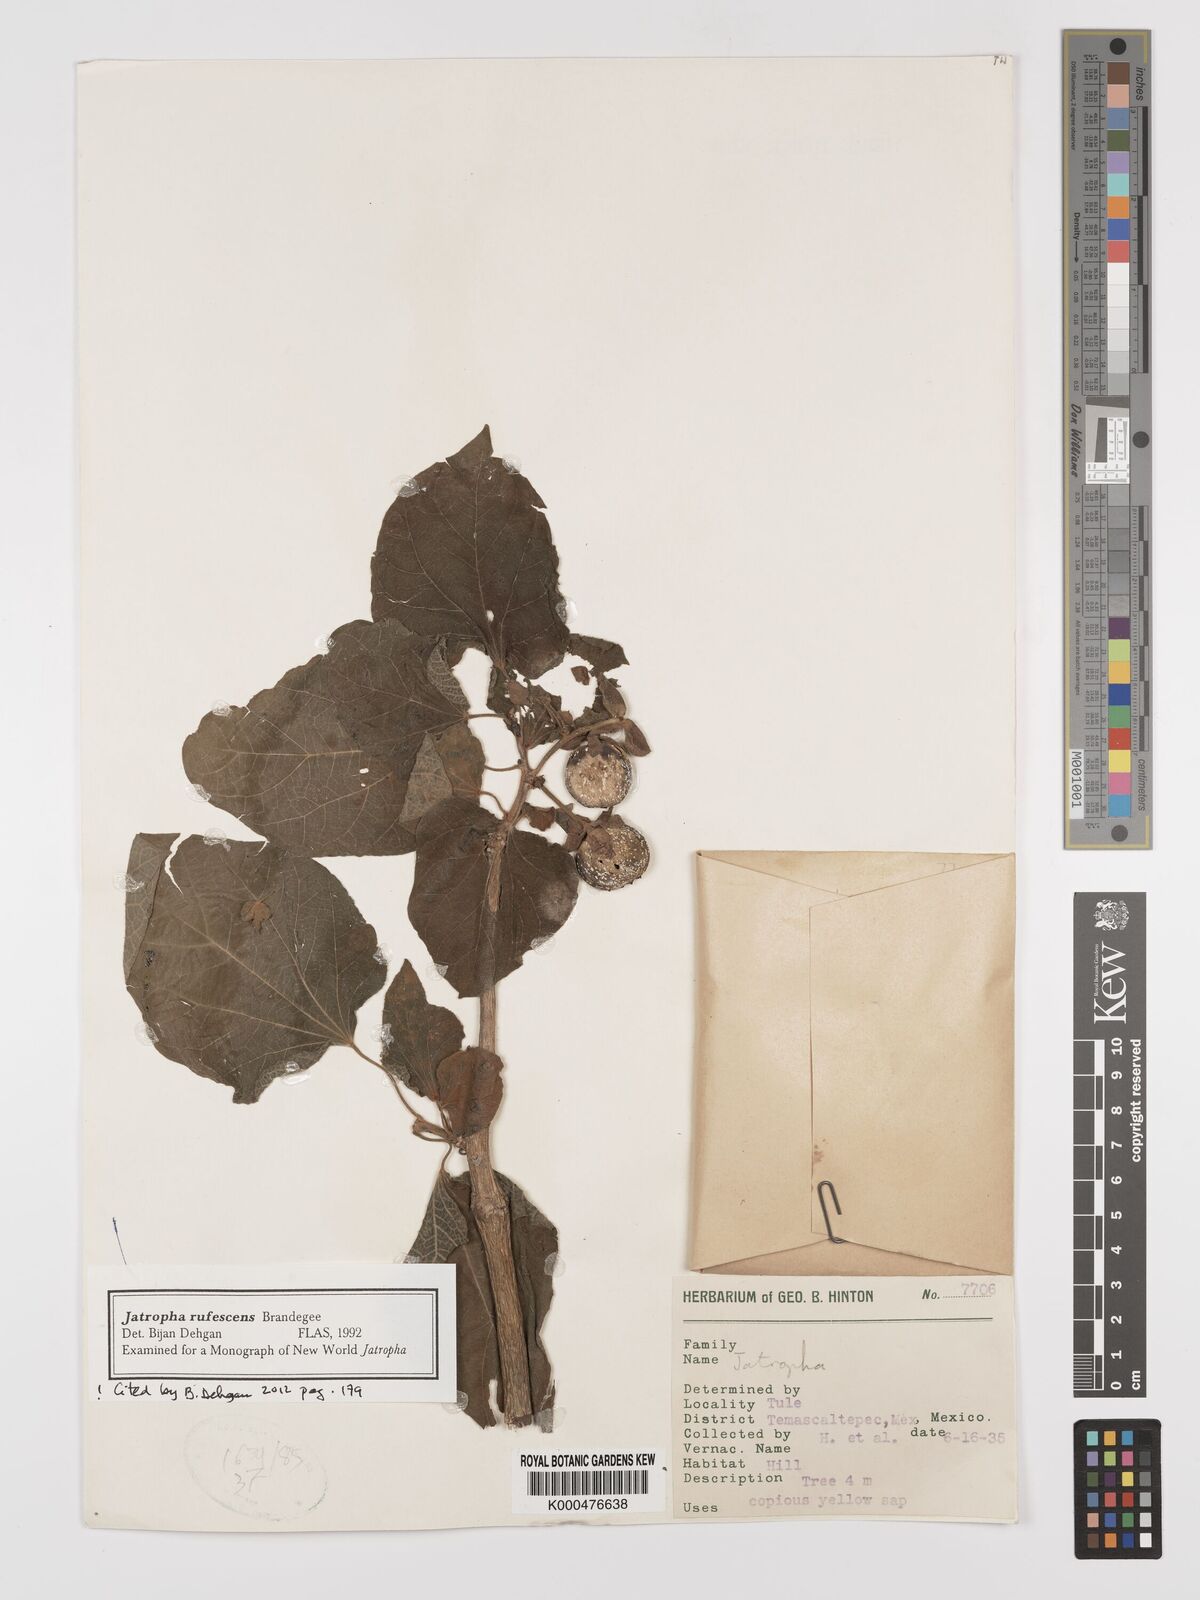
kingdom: Plantae
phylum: Tracheophyta
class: Magnoliopsida
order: Malpighiales
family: Euphorbiaceae
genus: Jatropha
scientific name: Jatropha rufescens
